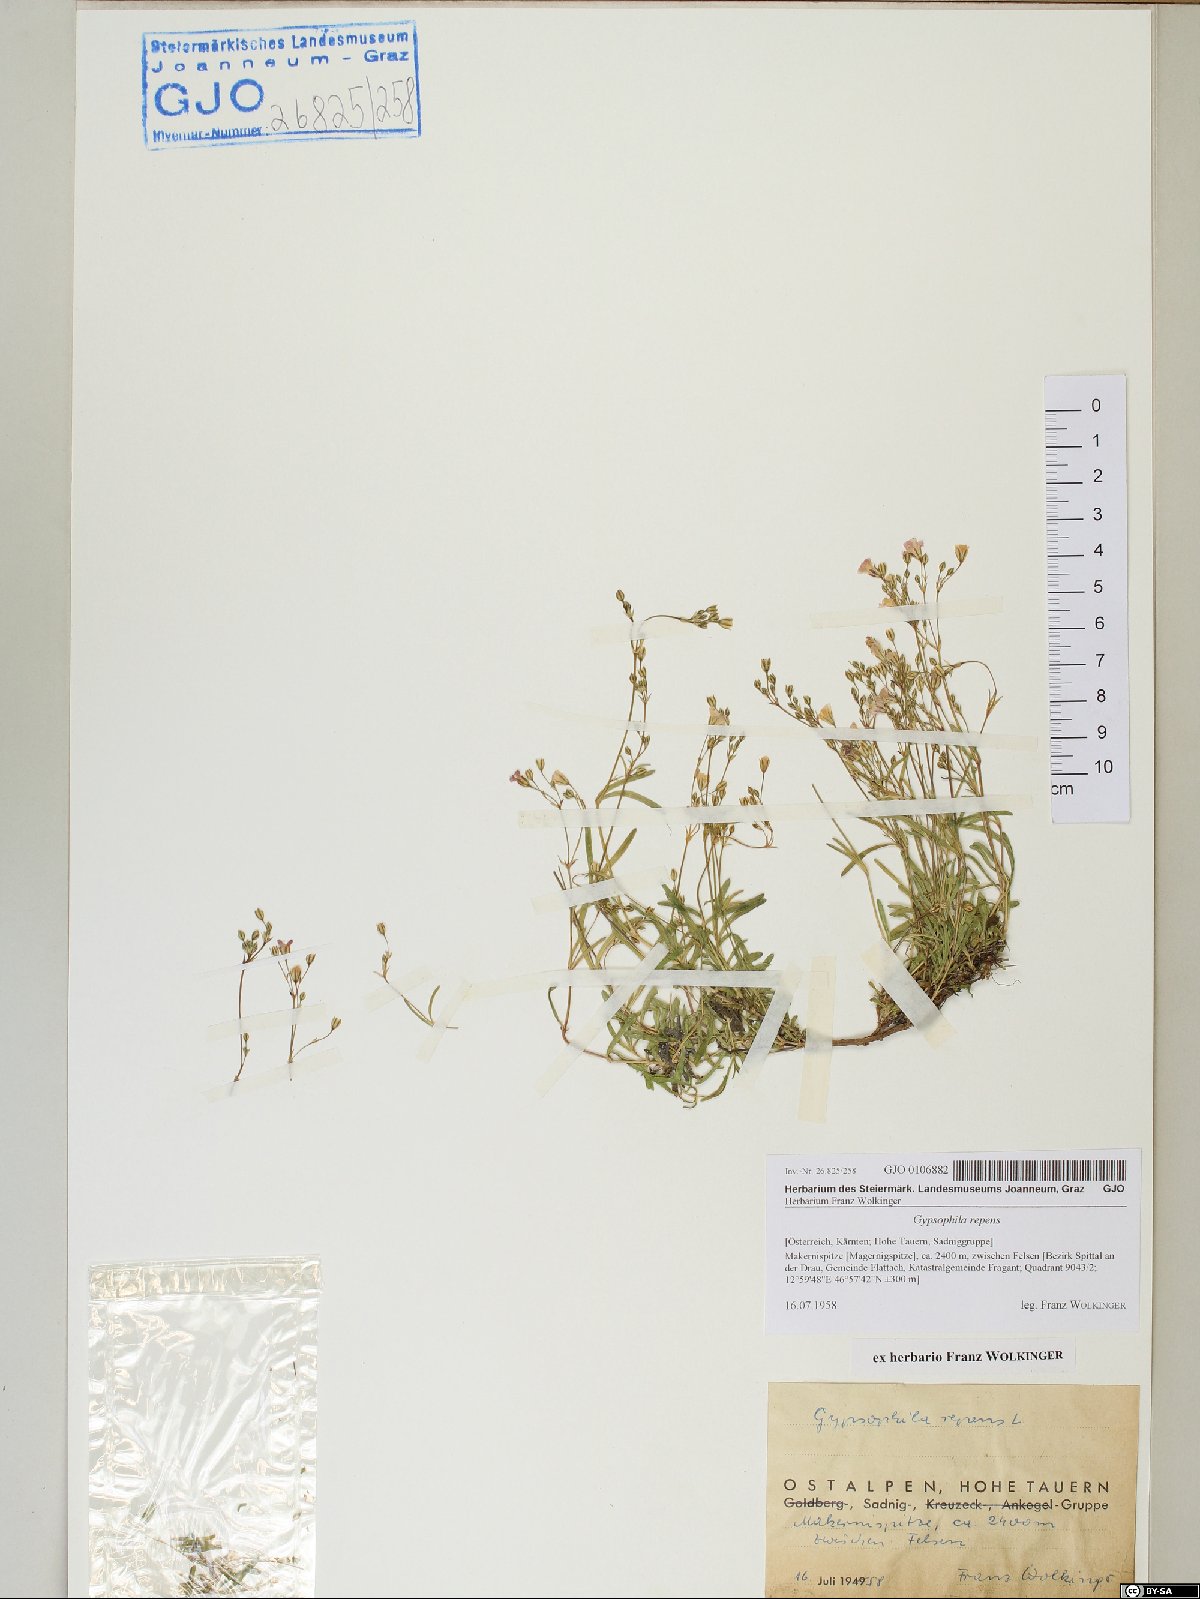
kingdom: Plantae
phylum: Tracheophyta
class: Magnoliopsida
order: Caryophyllales
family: Caryophyllaceae
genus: Gypsophila
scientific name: Gypsophila repens
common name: Creeping baby's-breath
